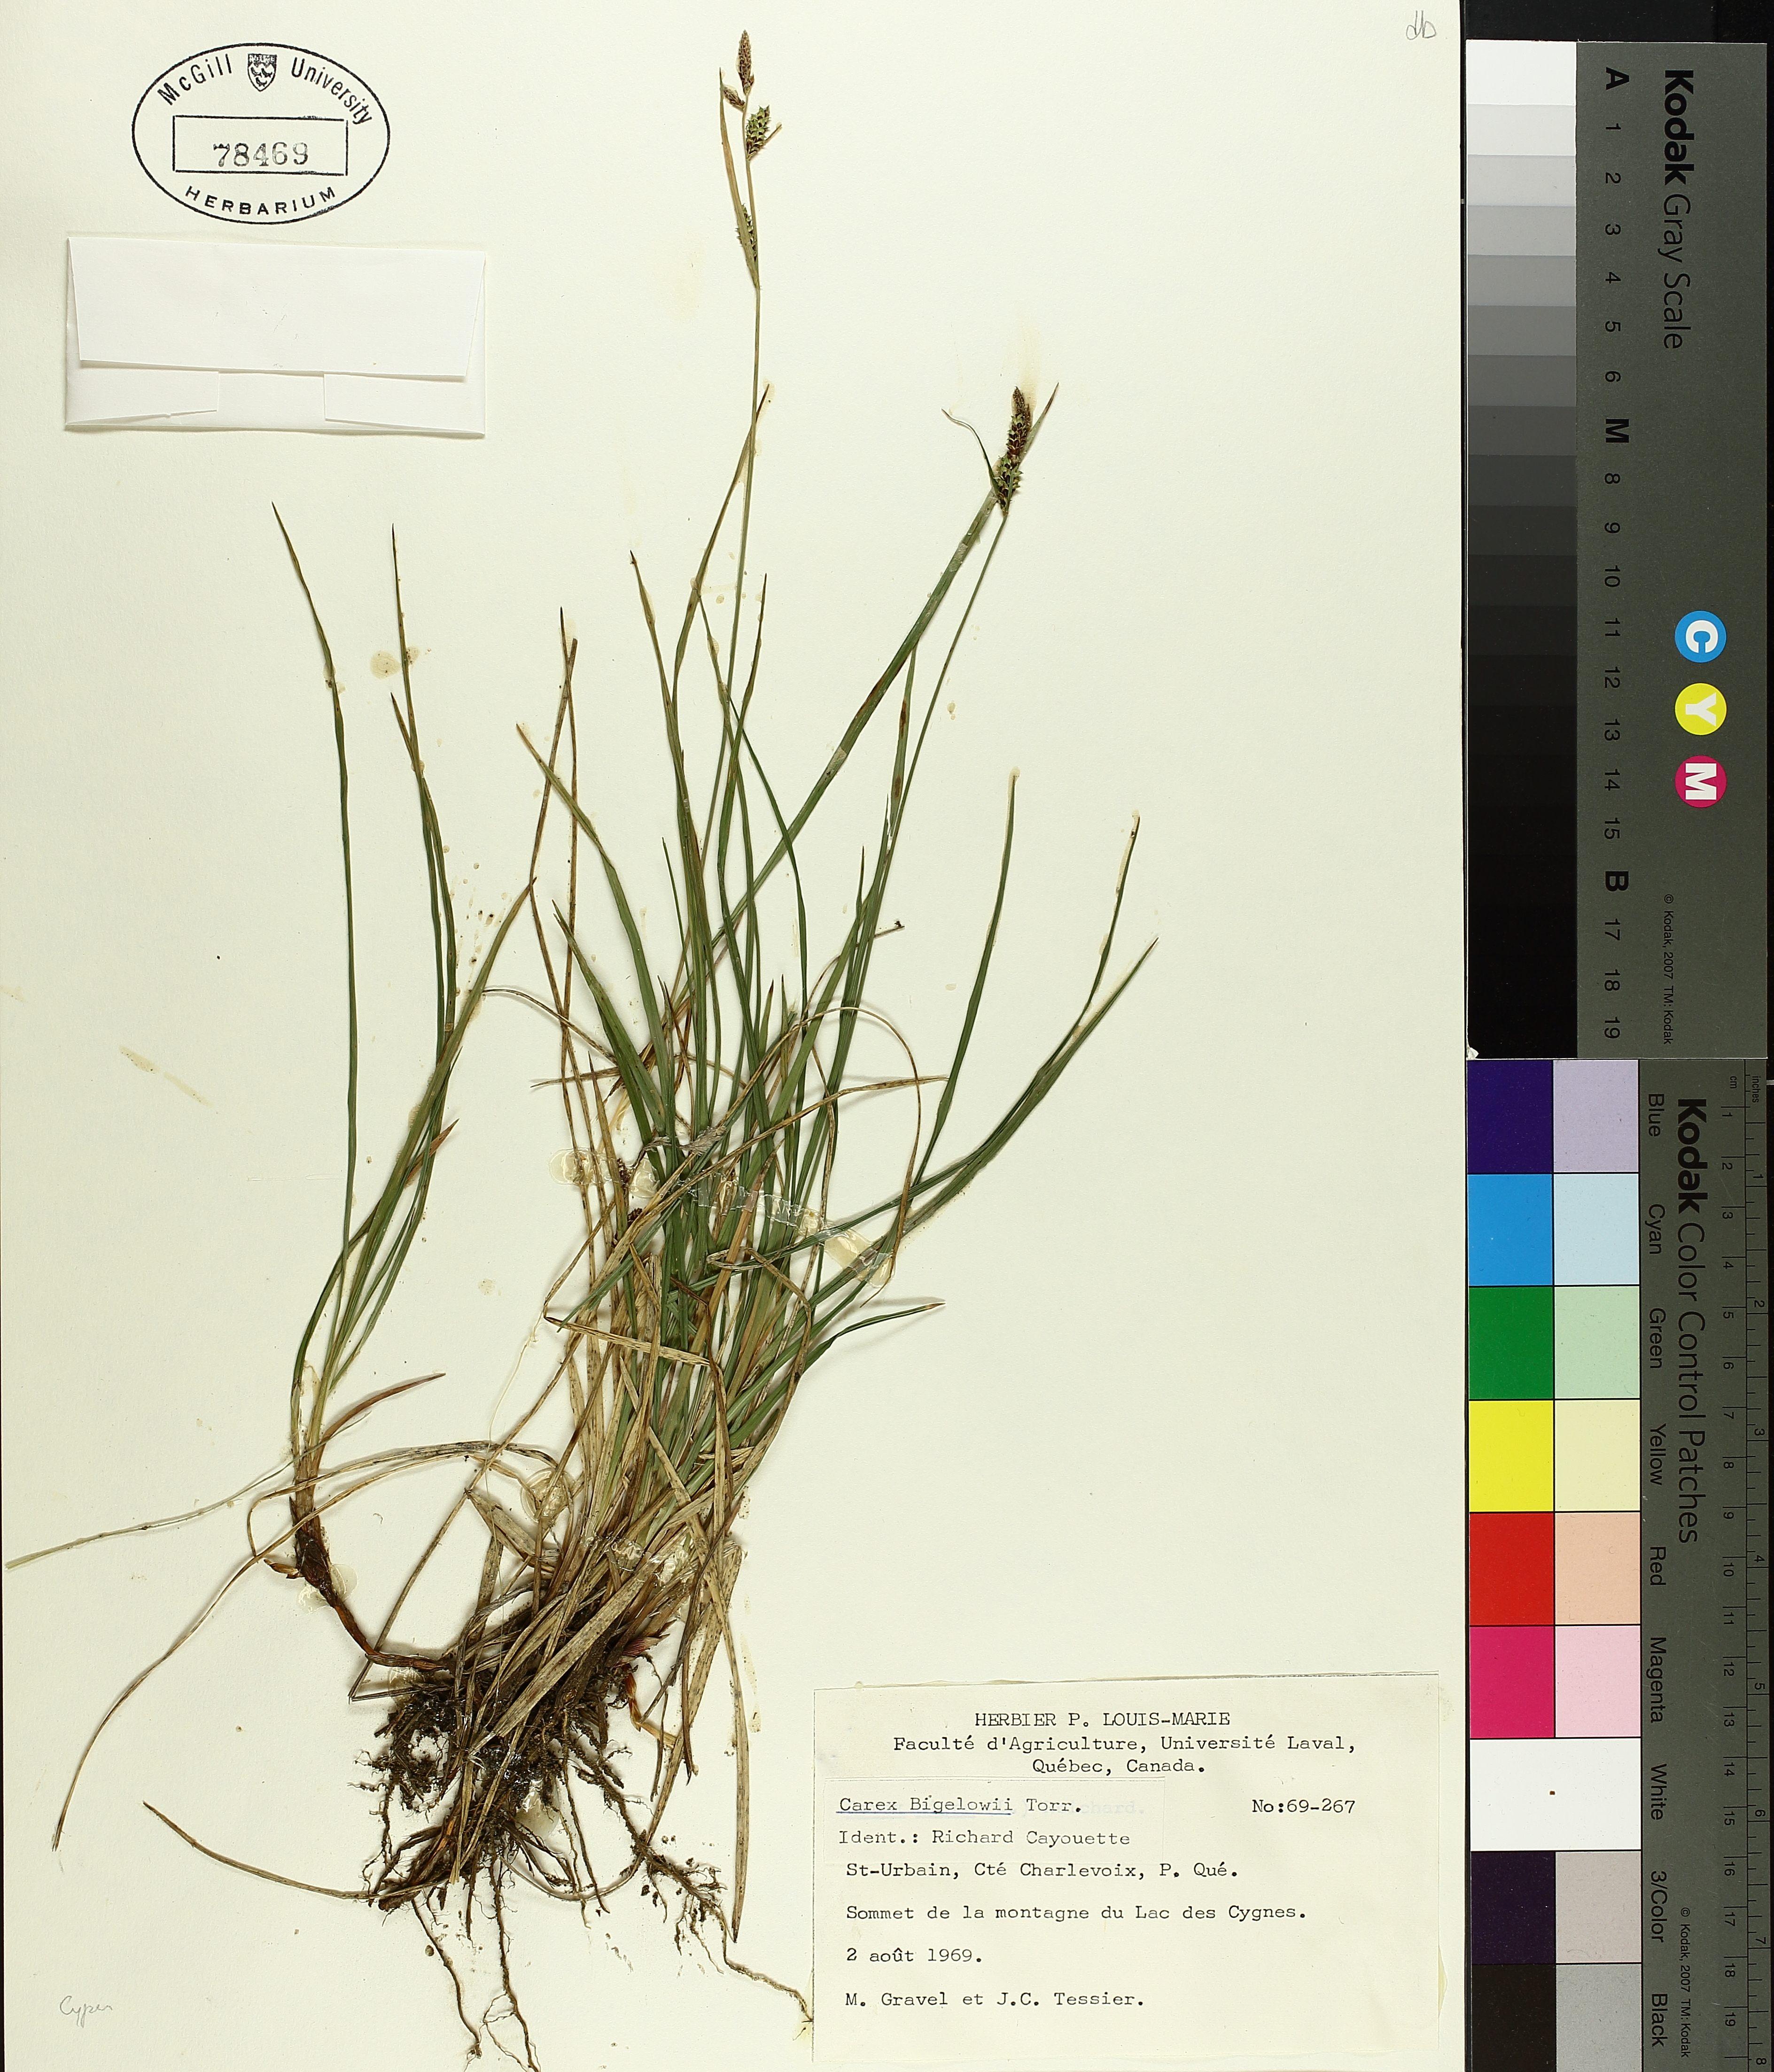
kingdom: Plantae
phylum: Tracheophyta
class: Liliopsida
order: Poales
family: Cyperaceae
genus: Carex
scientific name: Carex bigelowii
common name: Stiff sedge
